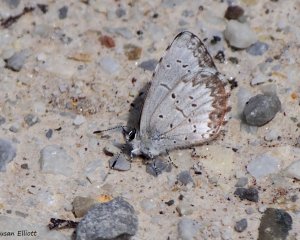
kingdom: Animalia
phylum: Arthropoda
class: Insecta
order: Lepidoptera
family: Lycaenidae
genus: Celastrina
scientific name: Celastrina lucia
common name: Northern Spring Azure
